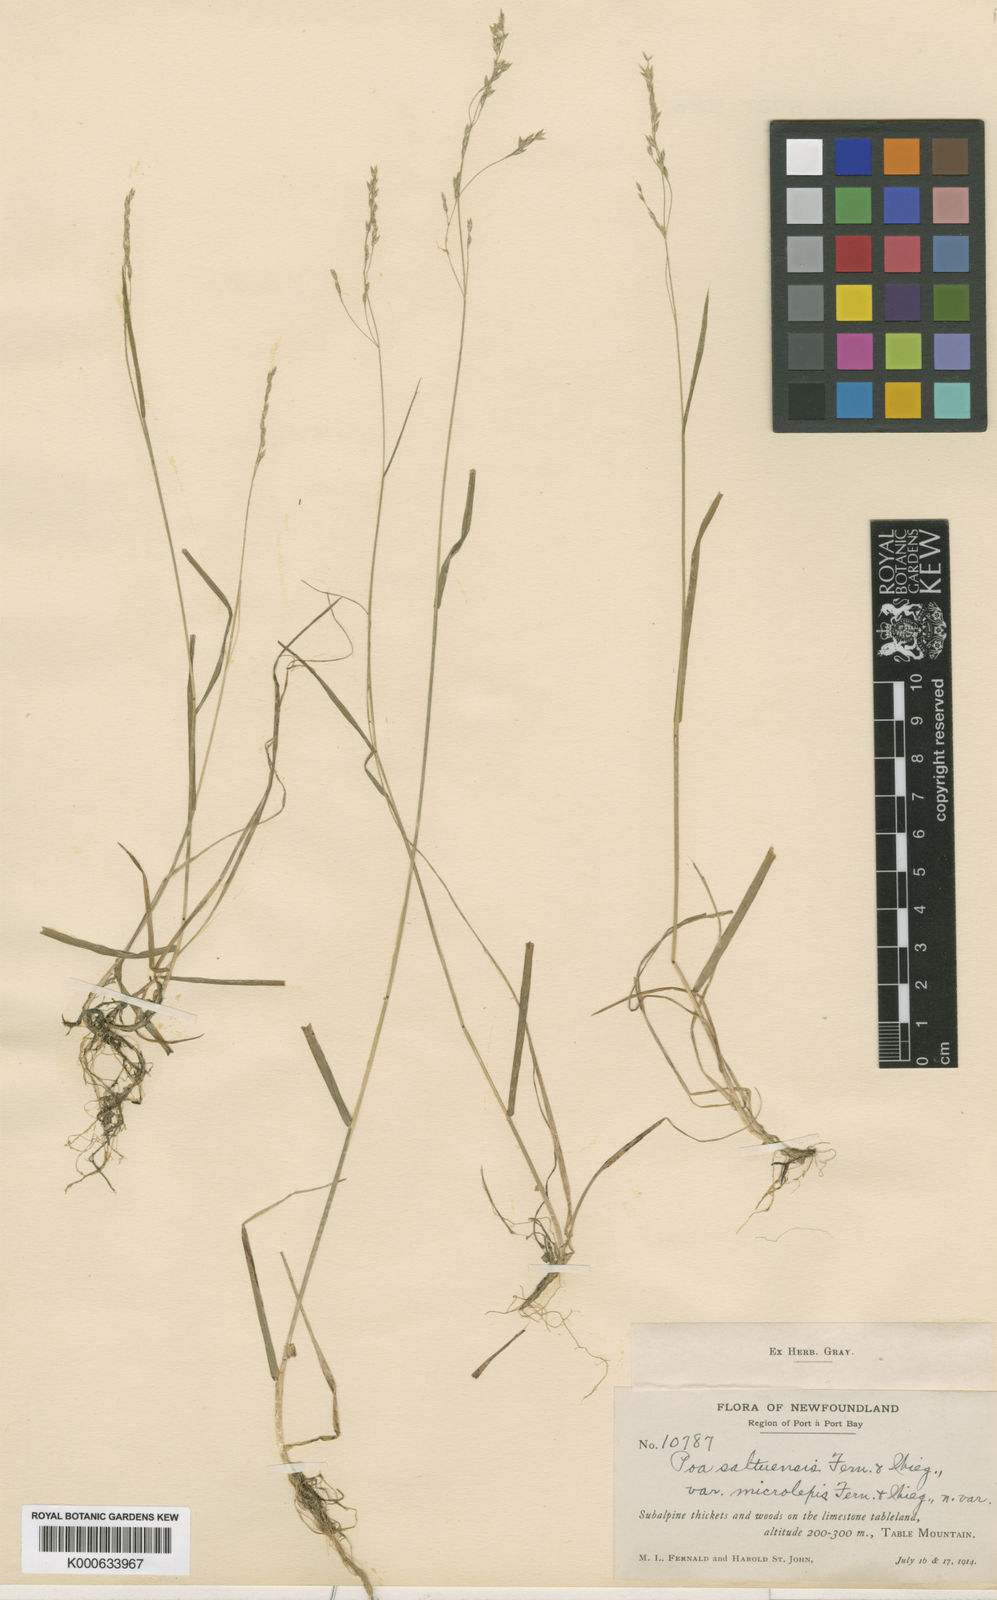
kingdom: Plantae
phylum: Tracheophyta
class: Liliopsida
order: Poales
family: Poaceae
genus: Poa
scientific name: Poa saltuensis
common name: Bushy pasture speargrass
